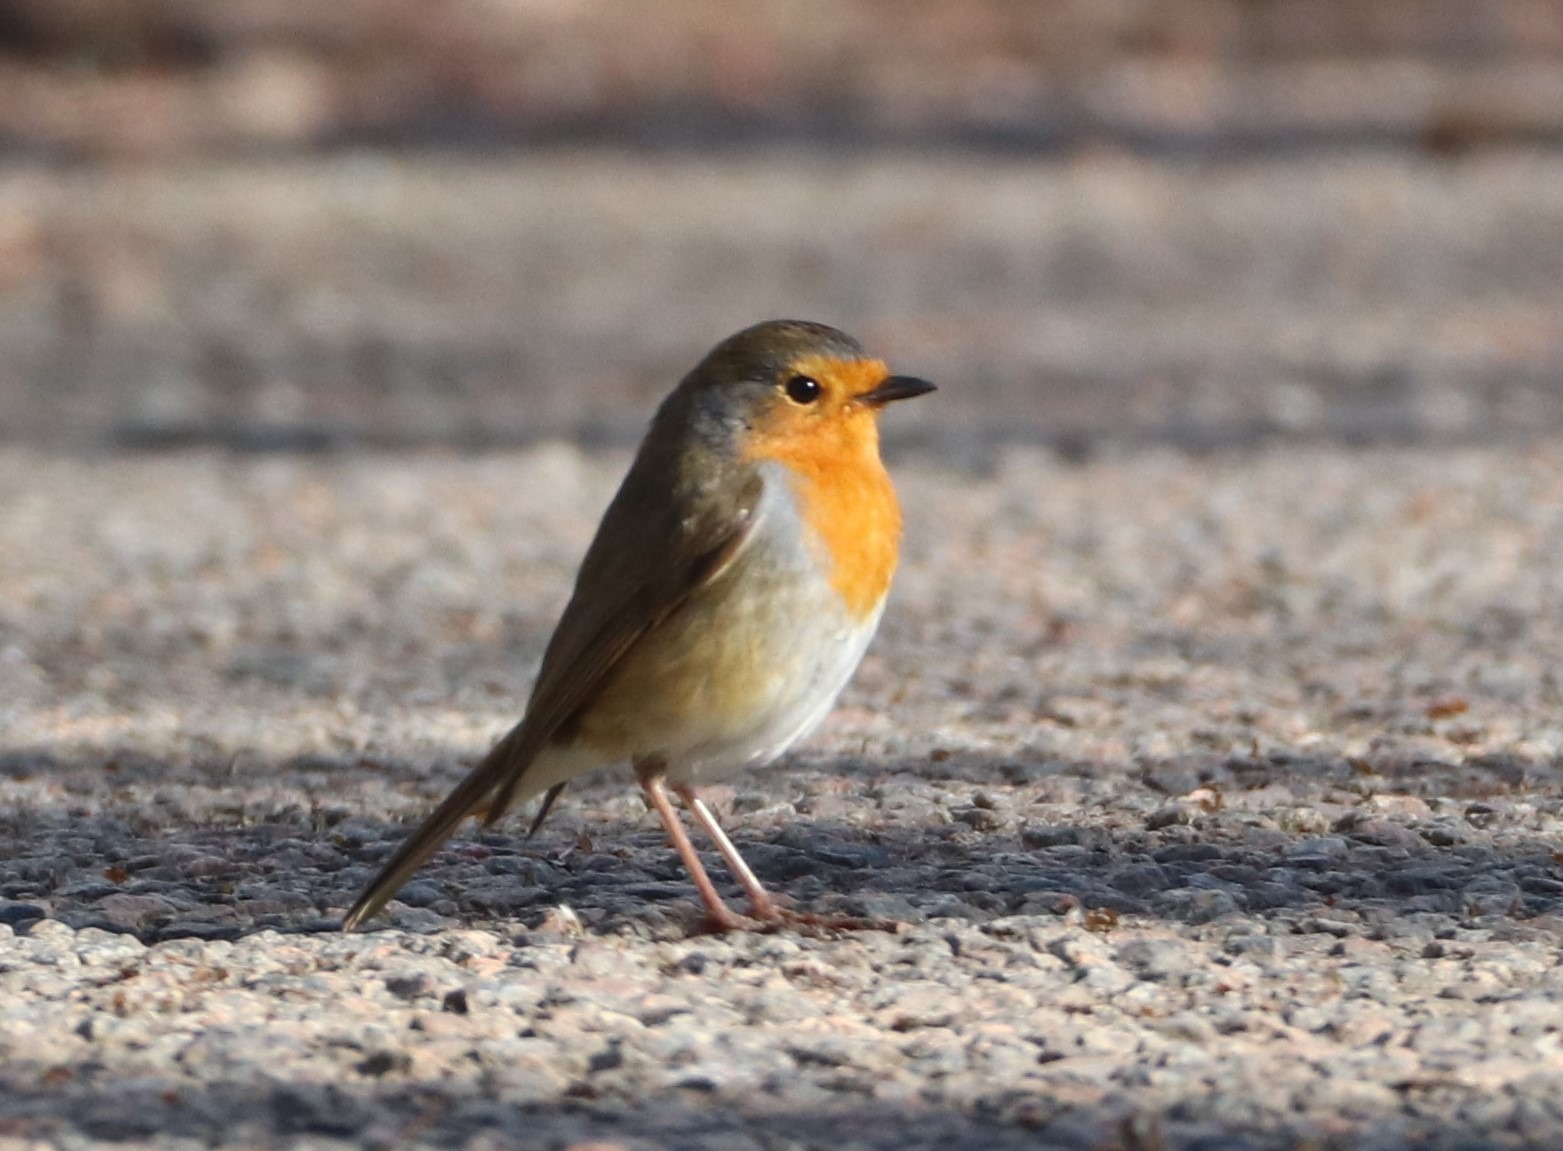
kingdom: Animalia
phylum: Chordata
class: Aves
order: Passeriformes
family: Muscicapidae
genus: Erithacus
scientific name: Erithacus rubecula
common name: Rødhals/rødkælk
